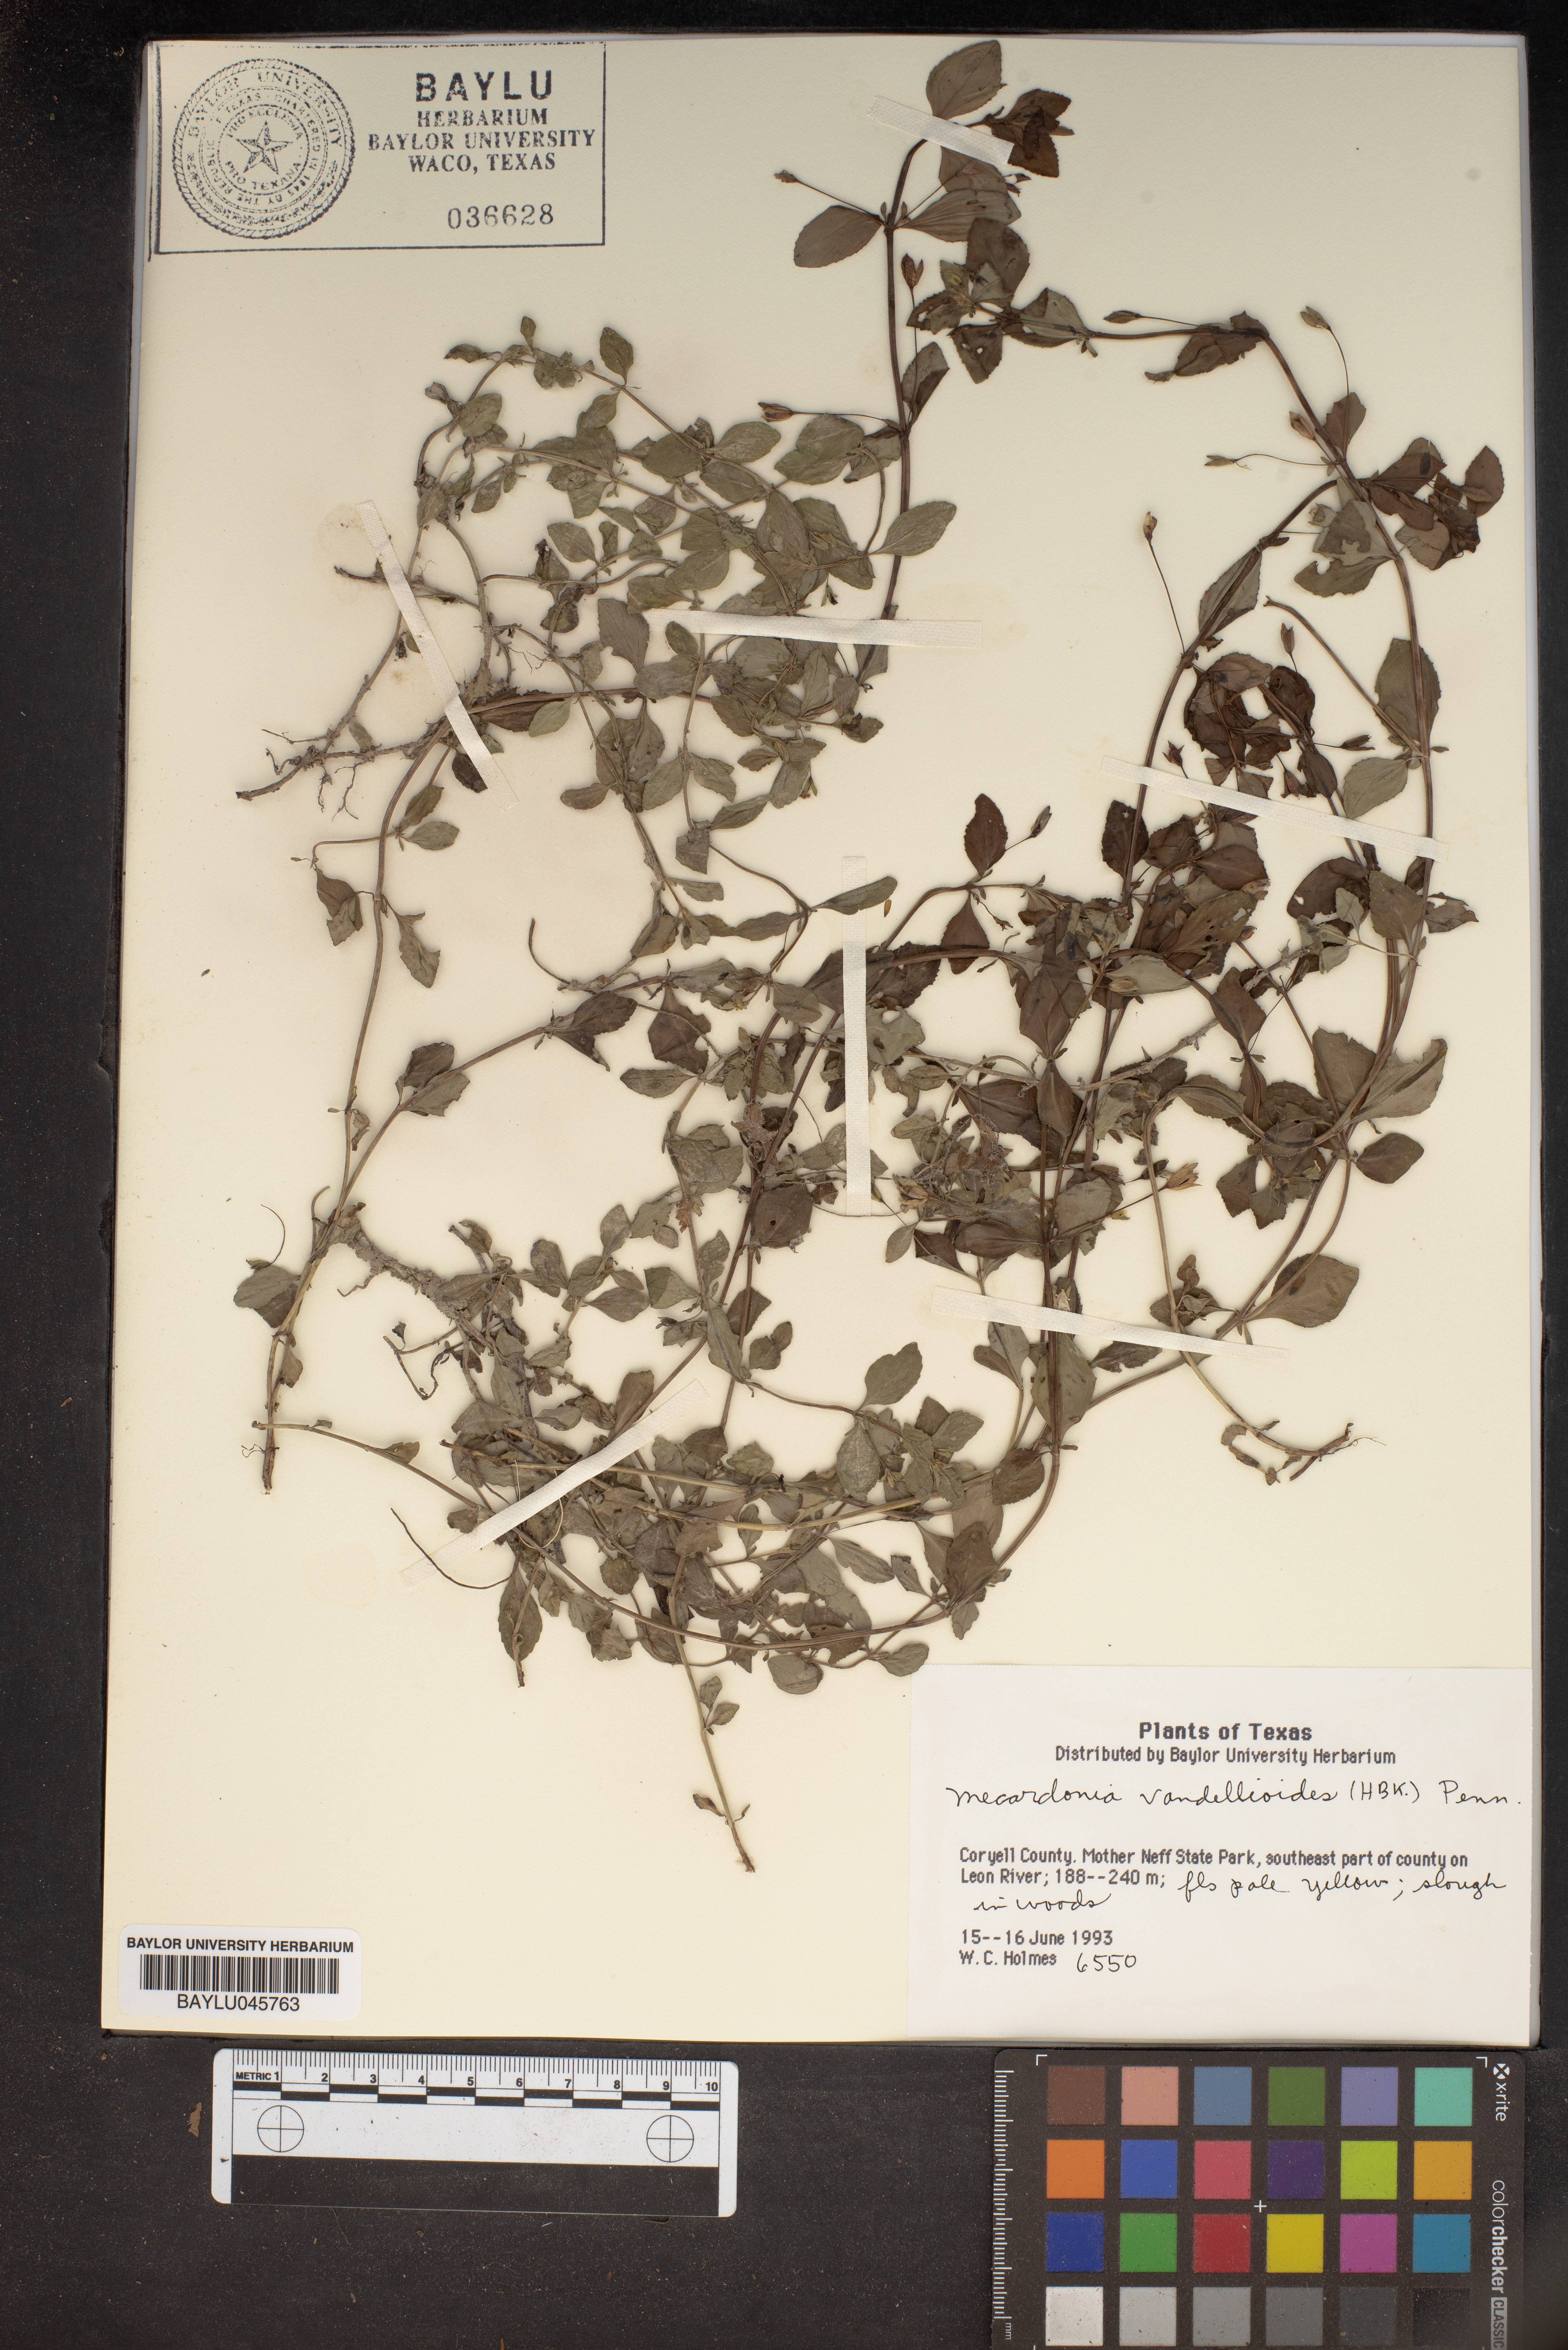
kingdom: Plantae
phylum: Tracheophyta
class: Magnoliopsida
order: Lamiales
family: Plantaginaceae
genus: Mecardonia
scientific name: Mecardonia procumbens
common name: Baby jump-up
